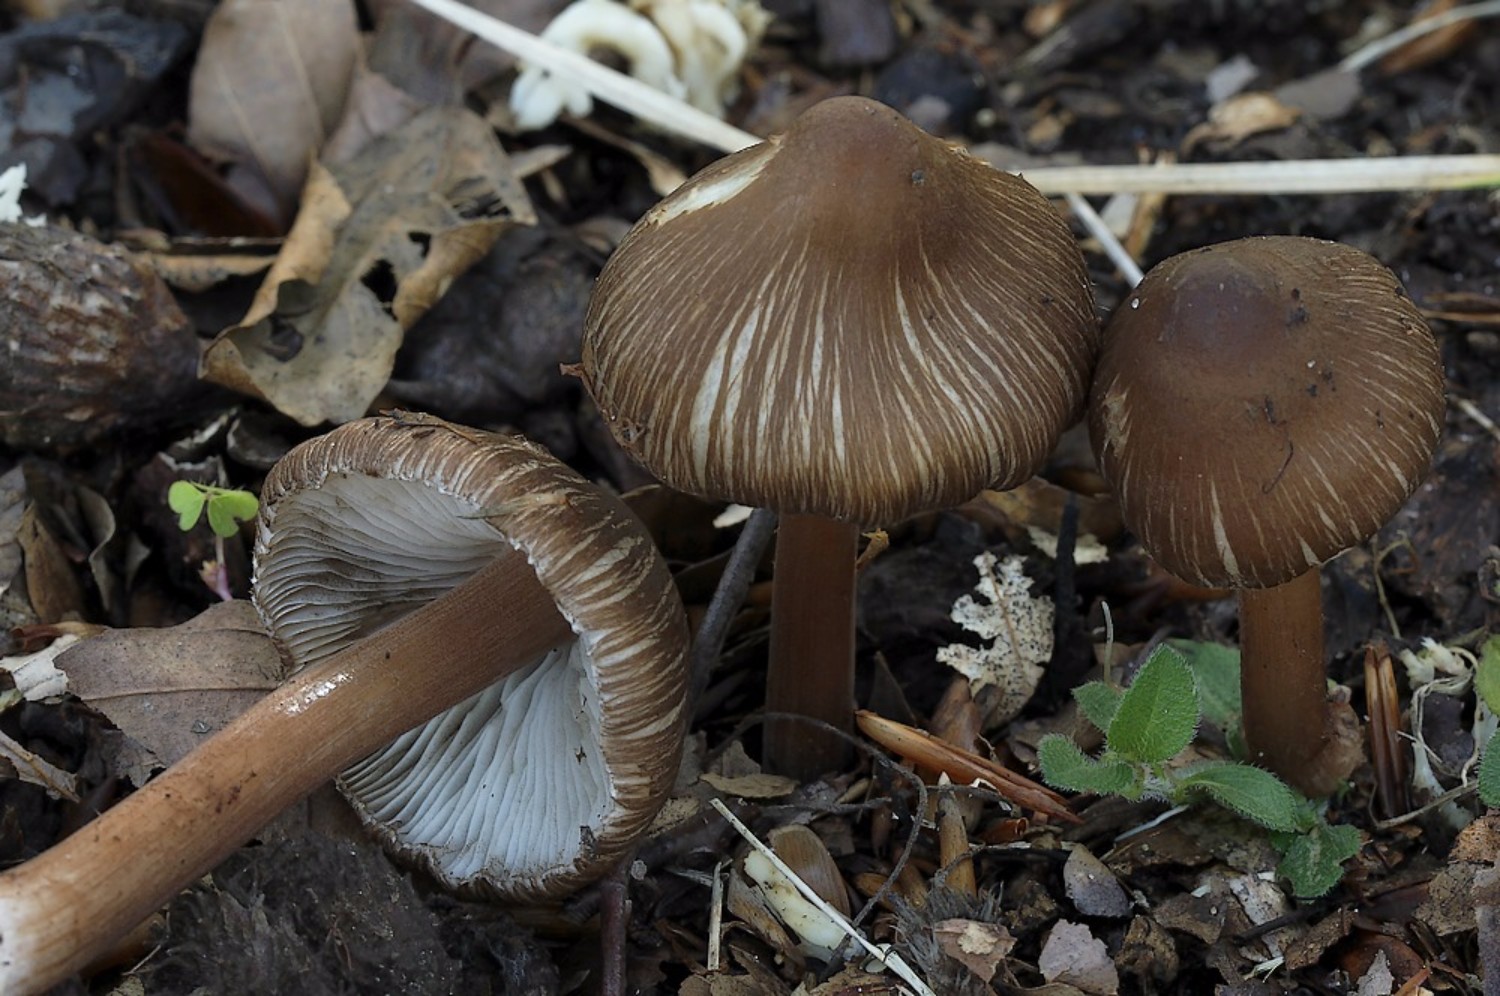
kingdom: Fungi
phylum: Basidiomycota
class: Agaricomycetes
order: Agaricales
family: Inocybaceae
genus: Inocybe
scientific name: Inocybe asterospora
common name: stjernesporet trævlhat
